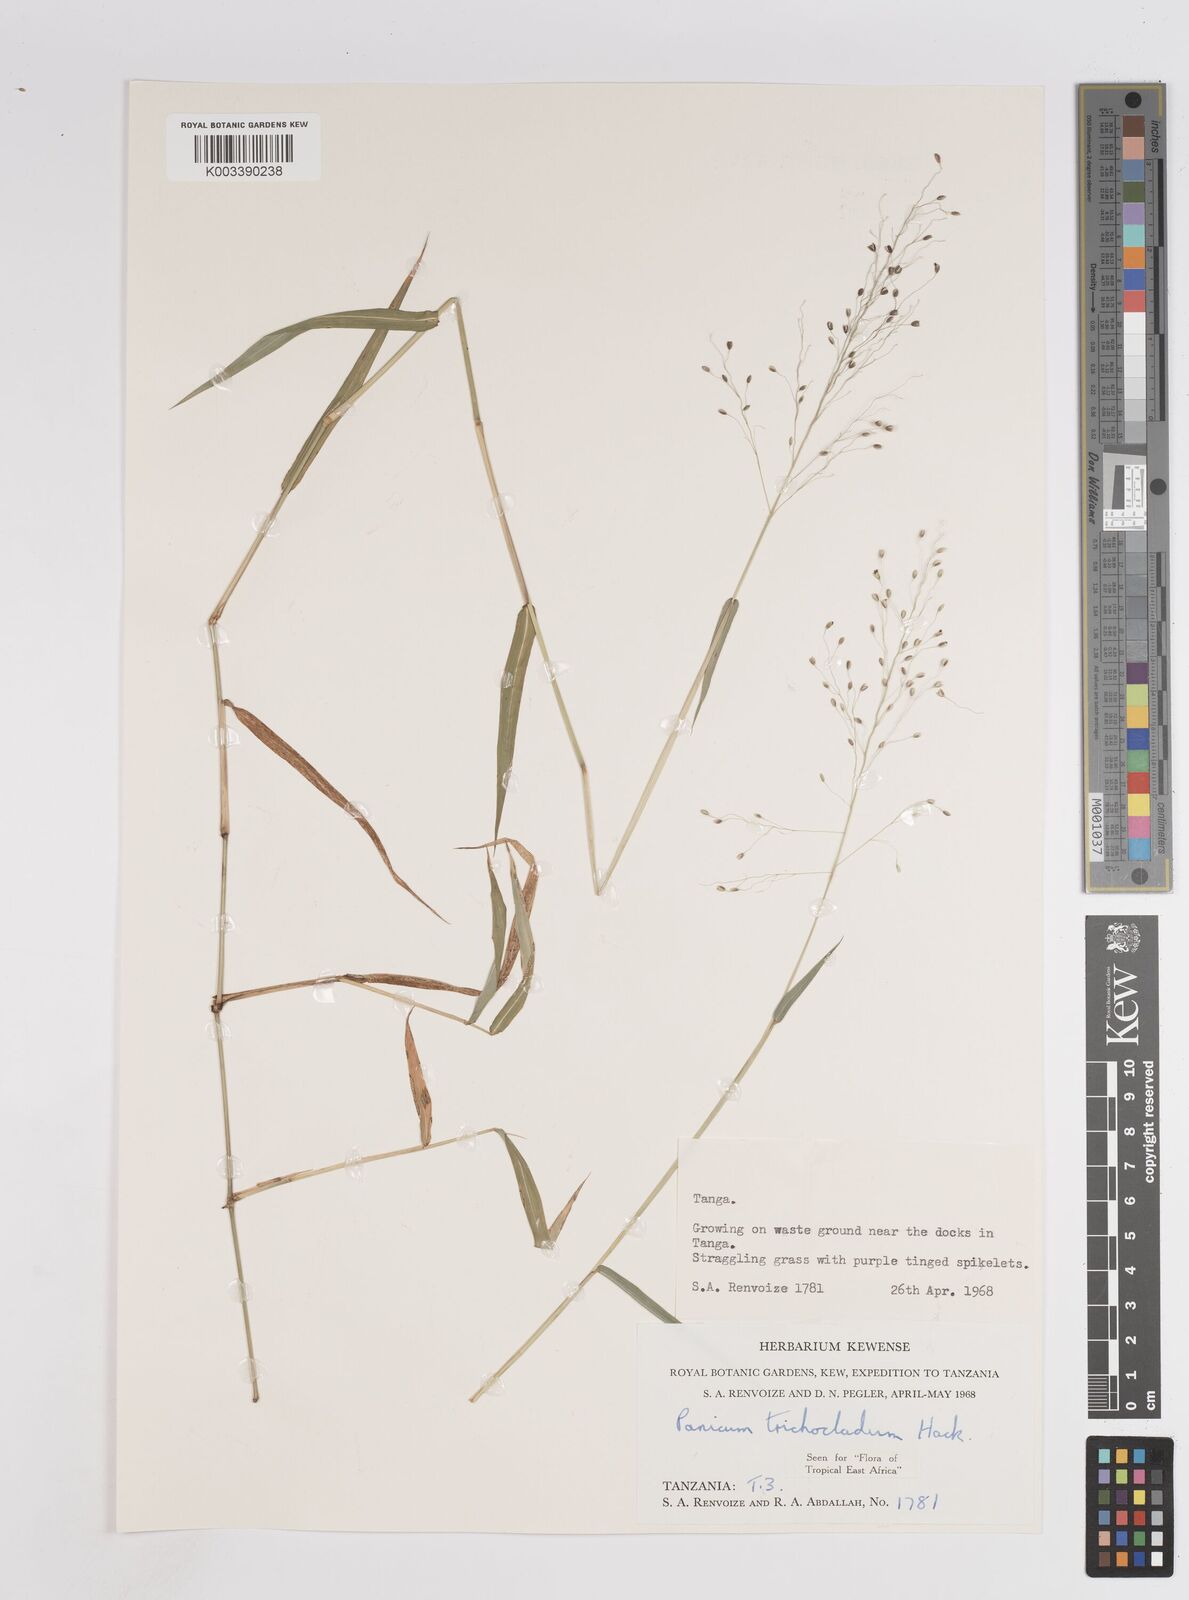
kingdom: Plantae
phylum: Tracheophyta
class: Liliopsida
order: Poales
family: Poaceae
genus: Panicum
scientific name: Panicum trichocladum
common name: Donkey grass
